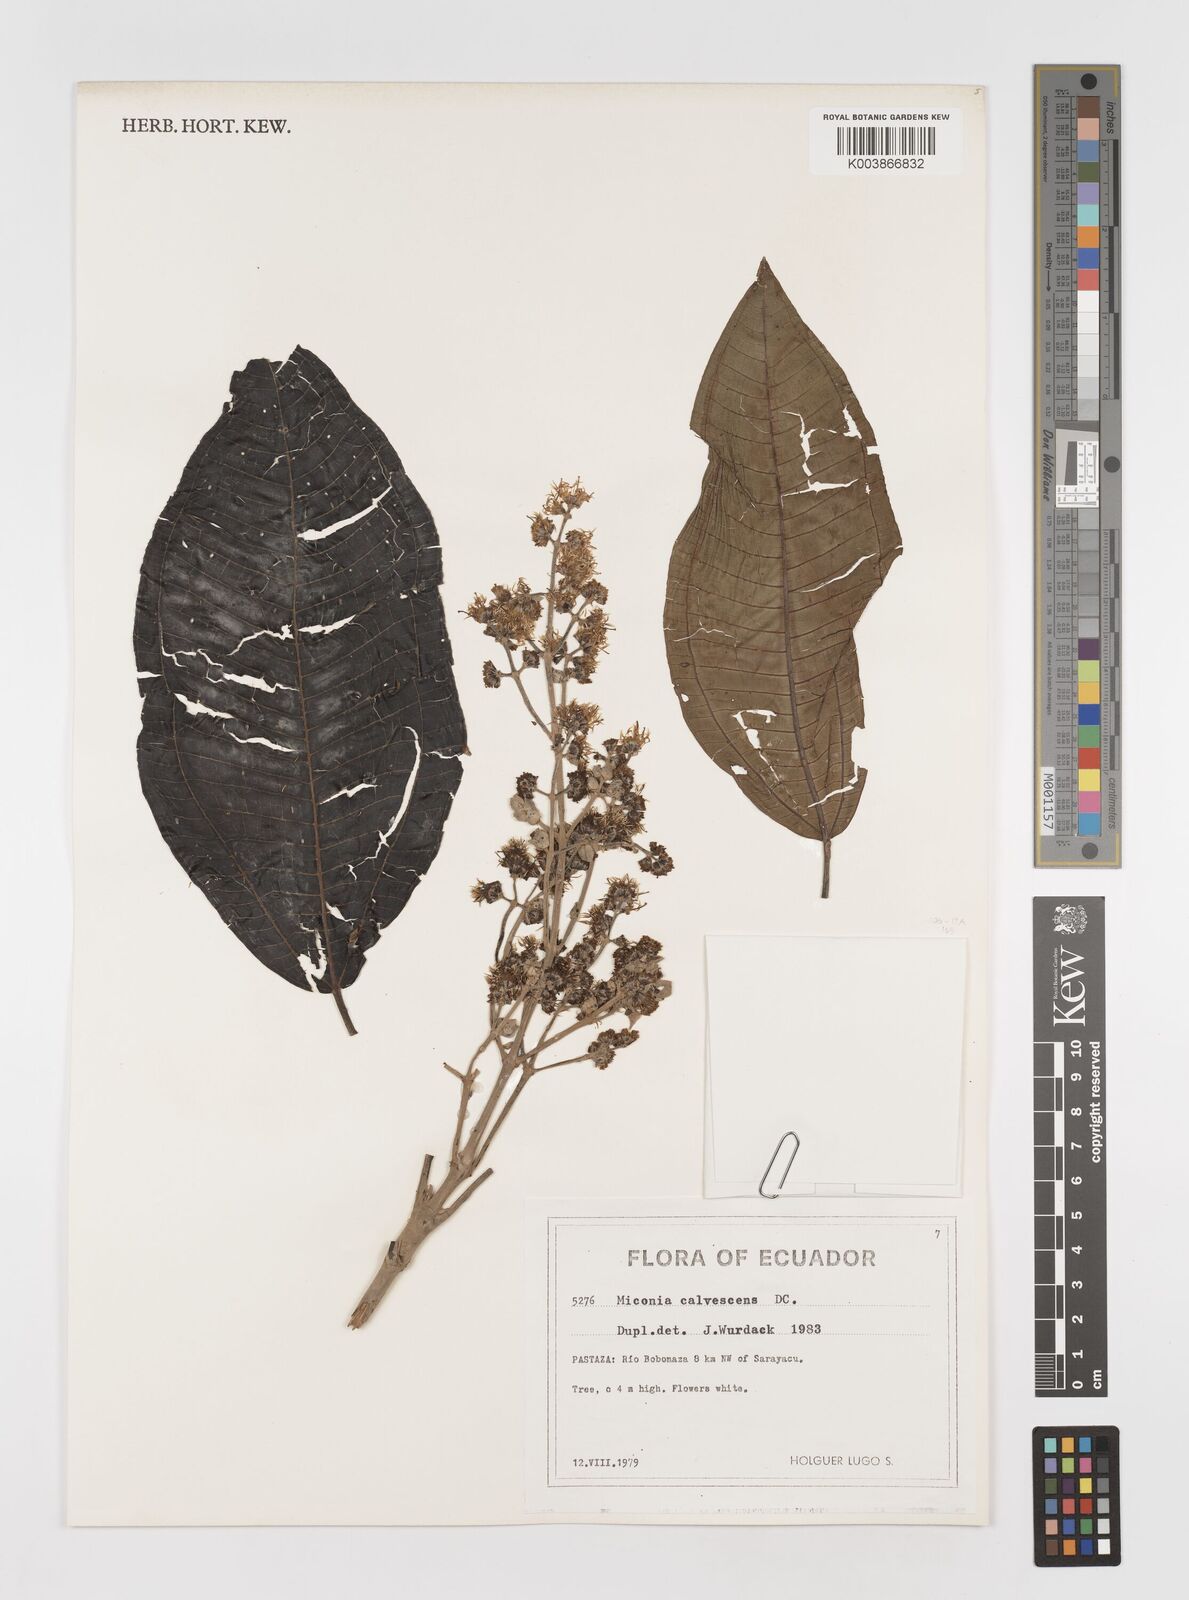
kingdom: Plantae
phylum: Tracheophyta
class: Magnoliopsida
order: Myrtales
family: Melastomataceae
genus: Miconia
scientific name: Miconia calvescens
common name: Purple plague
